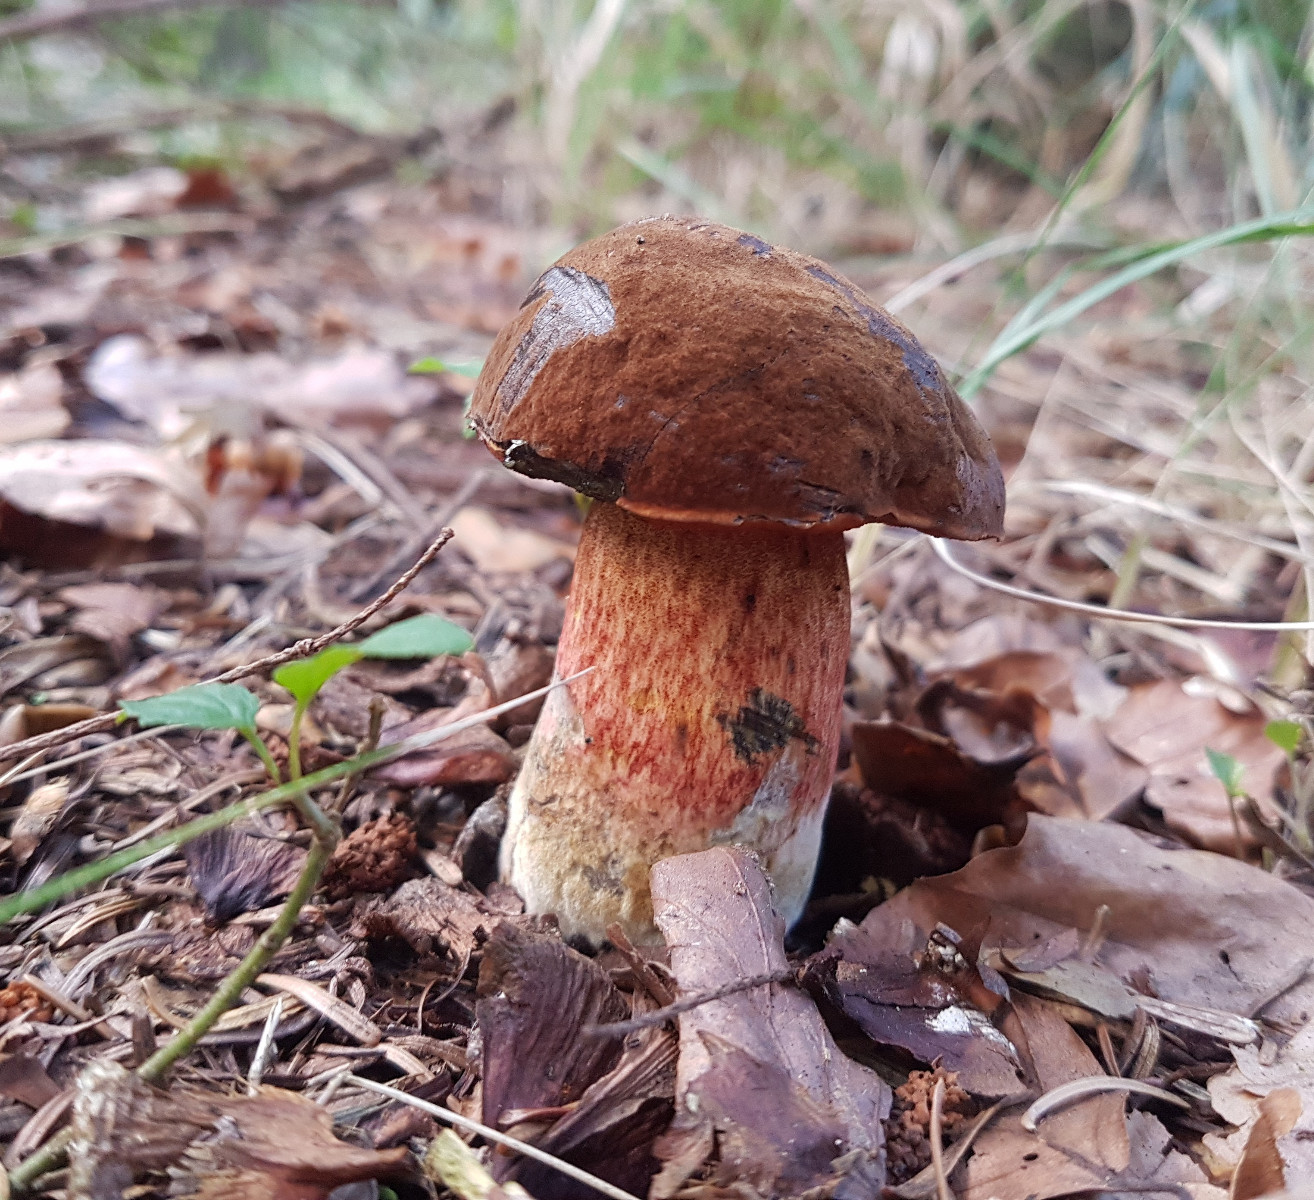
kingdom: Fungi
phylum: Basidiomycota
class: Agaricomycetes
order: Boletales
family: Boletaceae
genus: Neoboletus
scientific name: Neoboletus erythropus
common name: punktstokket indigorørhat
